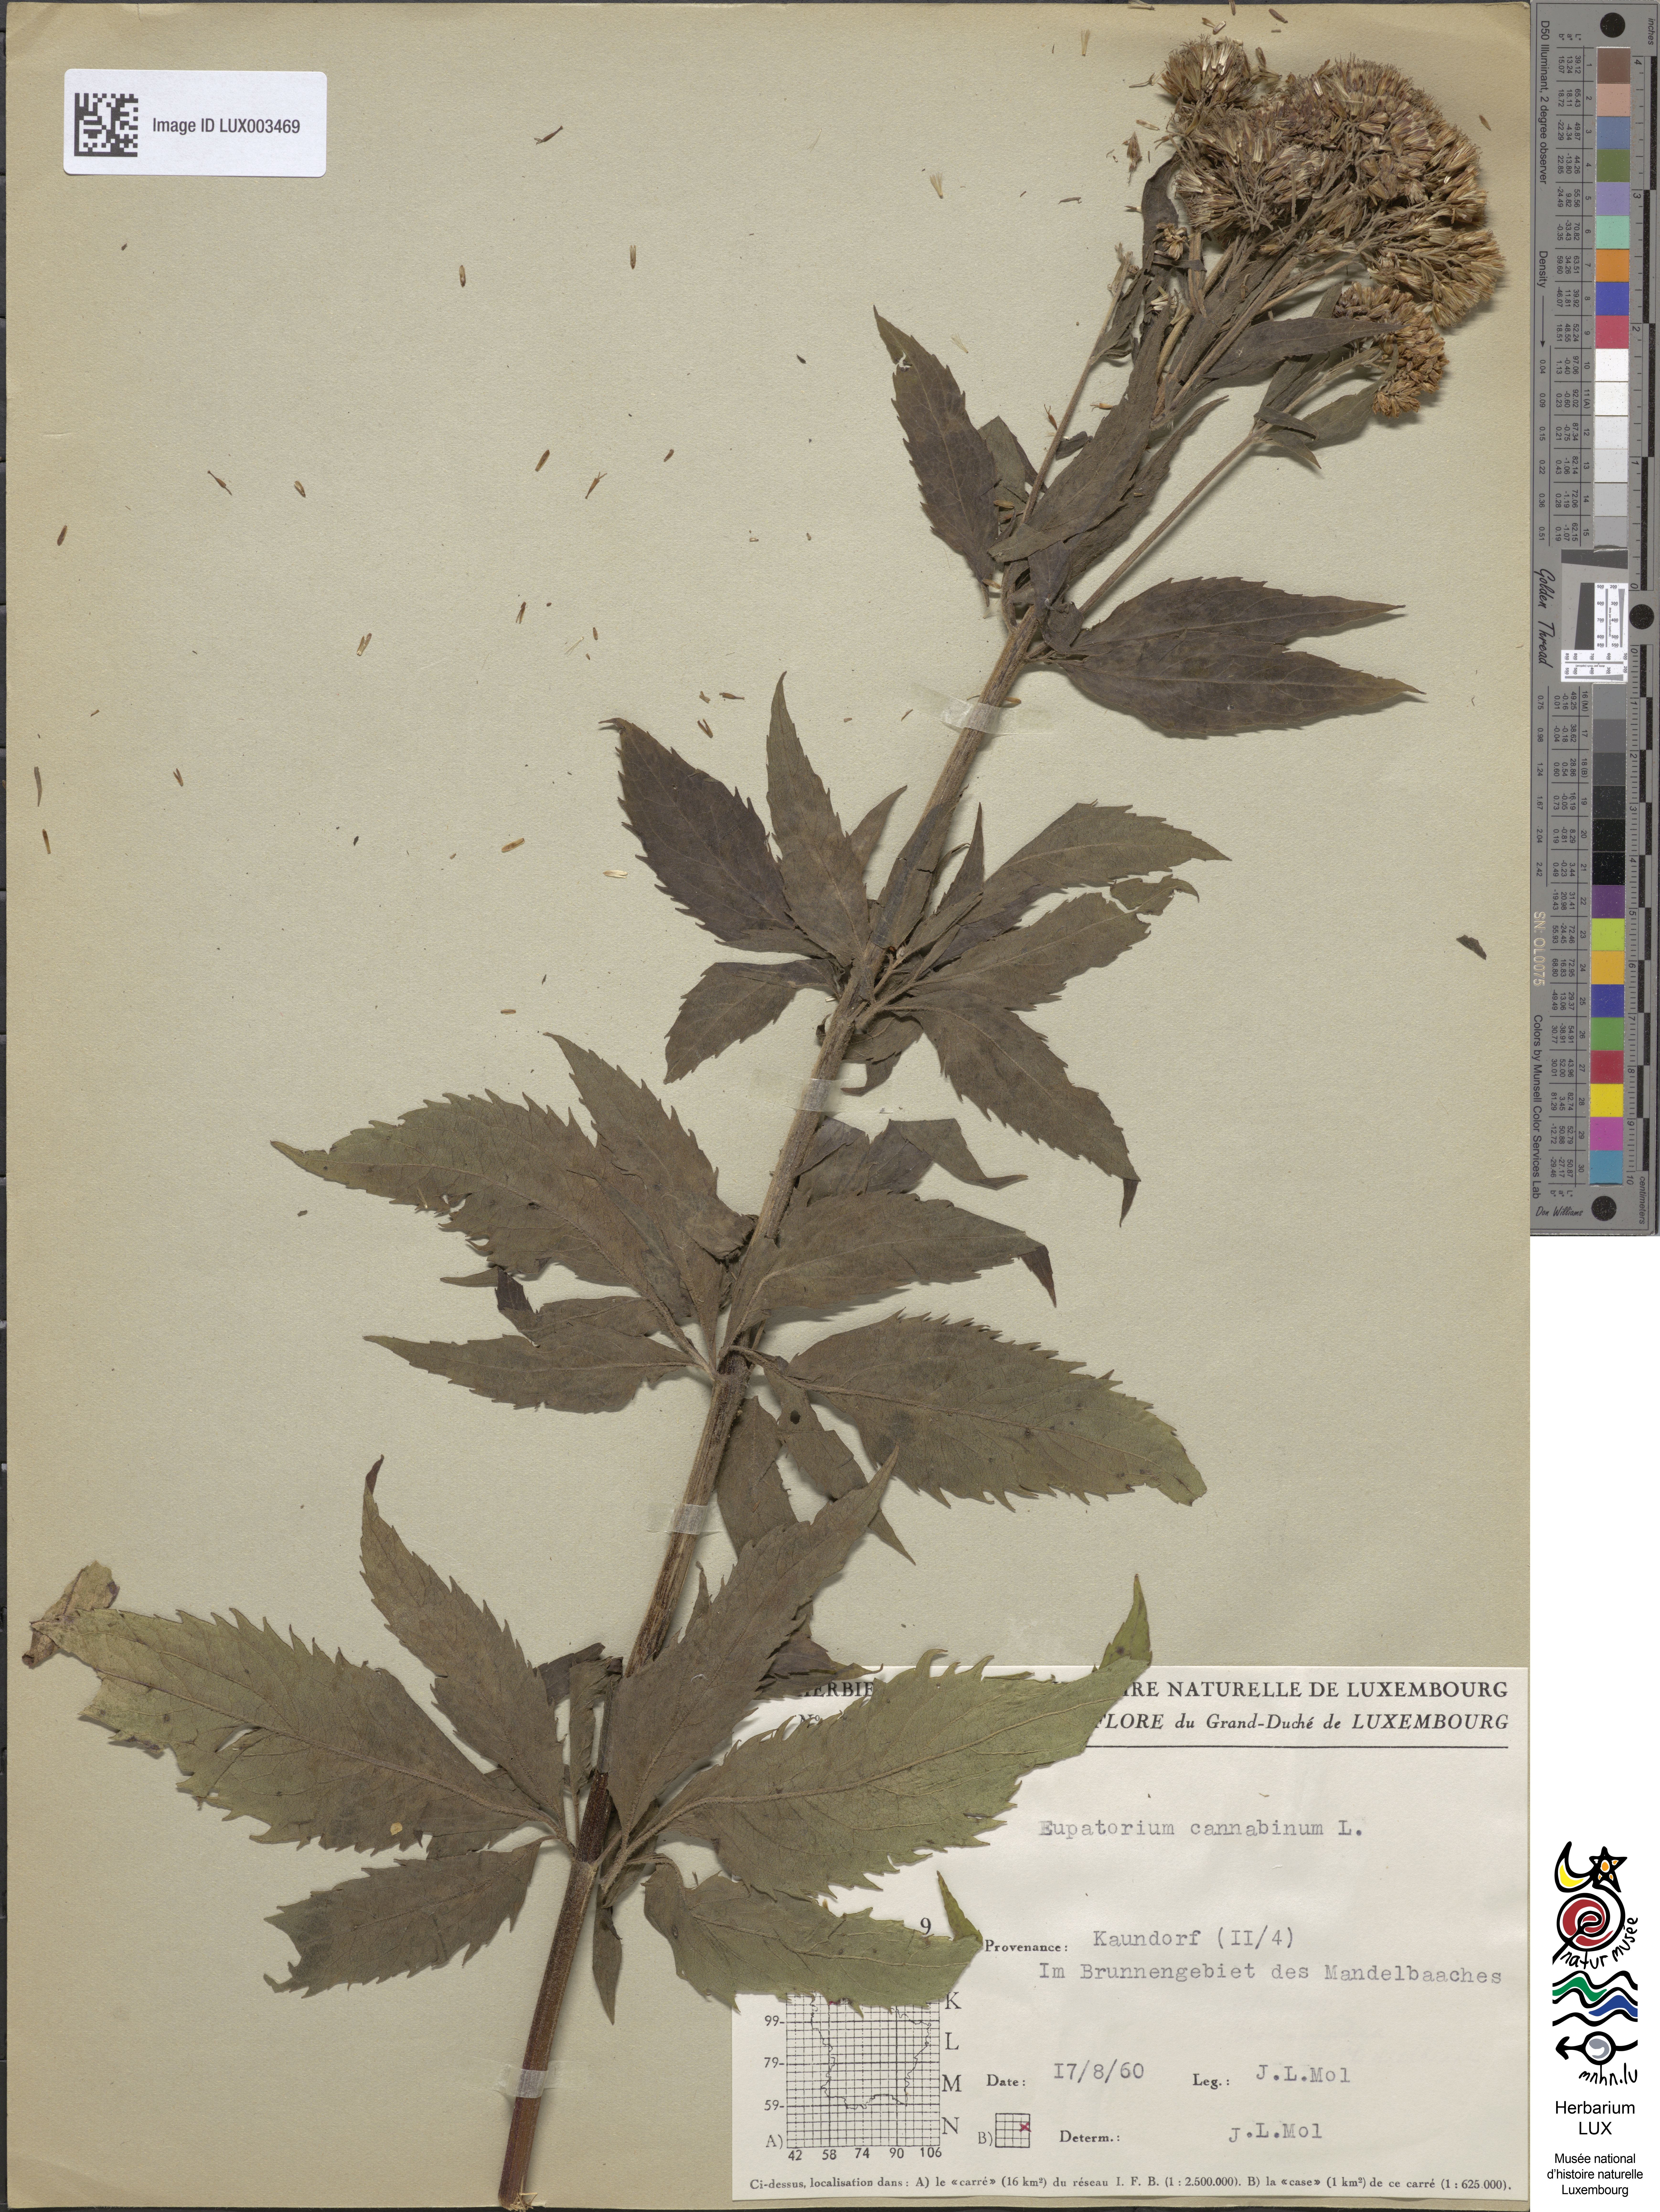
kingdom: Plantae
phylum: Tracheophyta
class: Magnoliopsida
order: Asterales
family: Asteraceae
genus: Eupatorium
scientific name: Eupatorium cannabinum
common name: Hemp-agrimony
